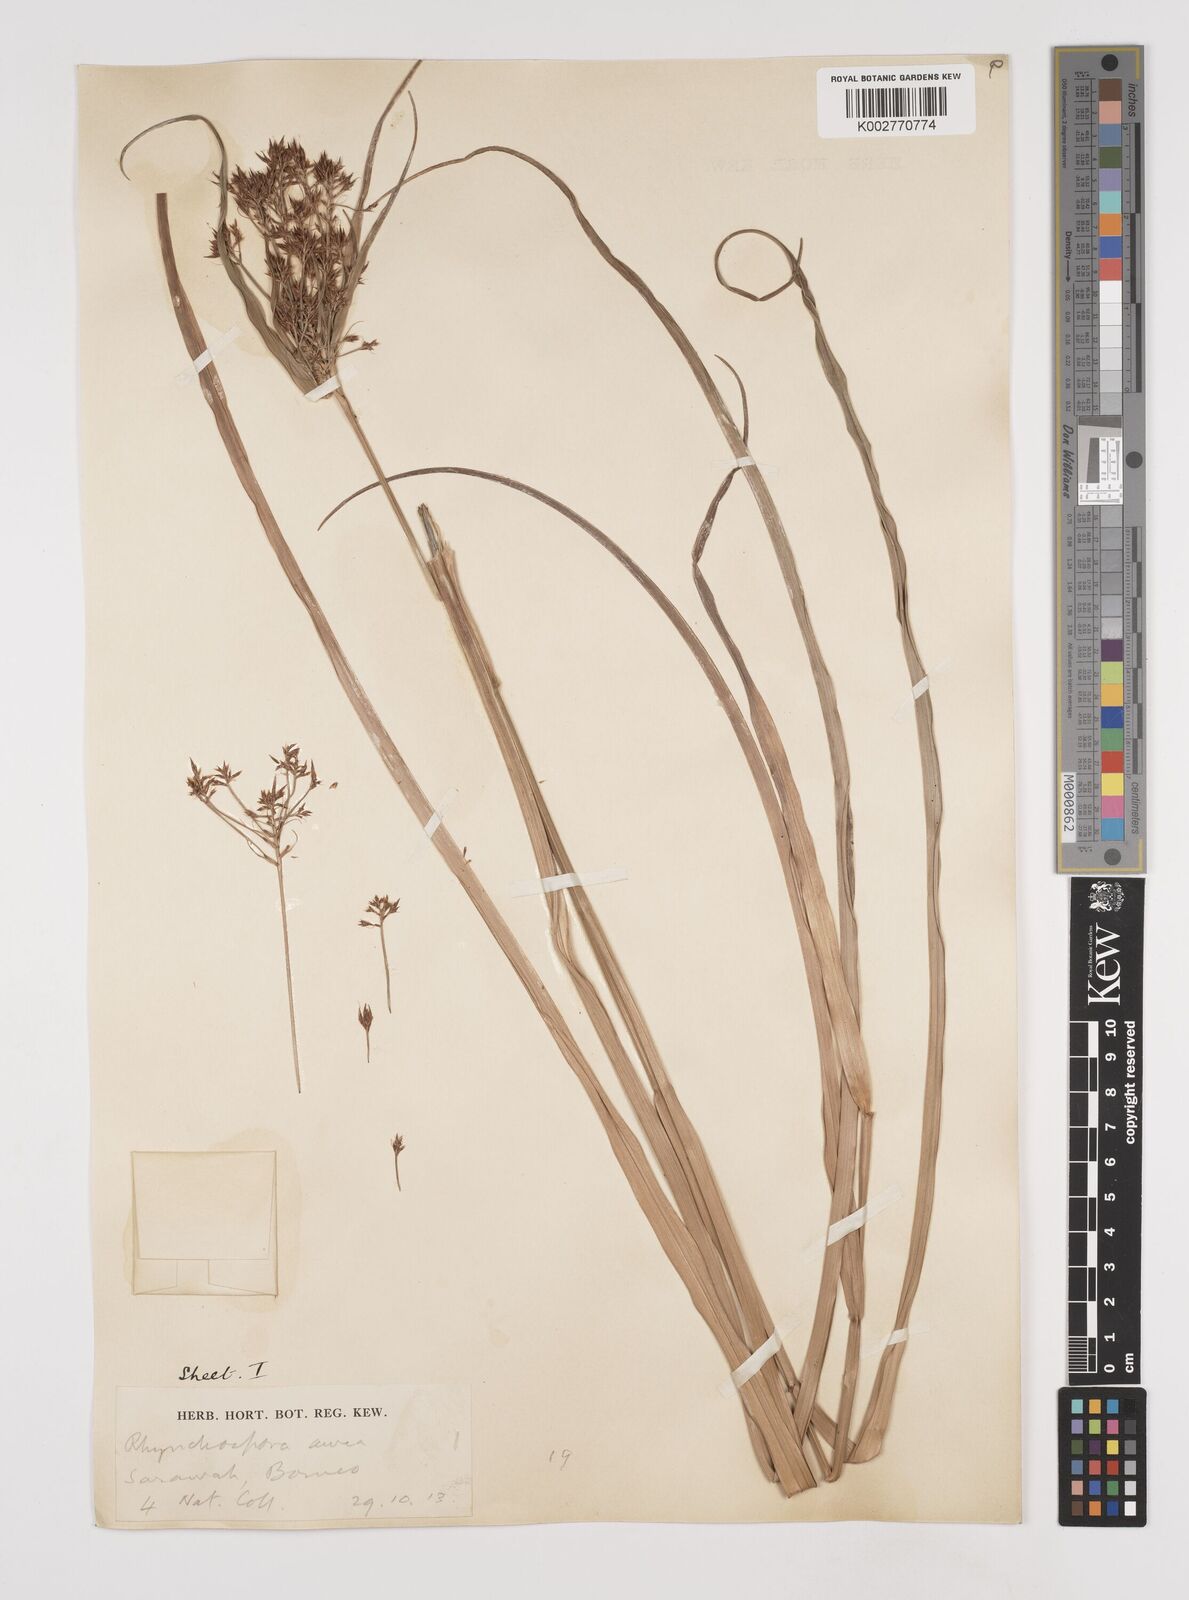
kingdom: Plantae
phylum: Tracheophyta
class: Liliopsida
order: Poales
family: Cyperaceae
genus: Rhynchospora
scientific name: Rhynchospora corymbosa
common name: Golden beak sedge
